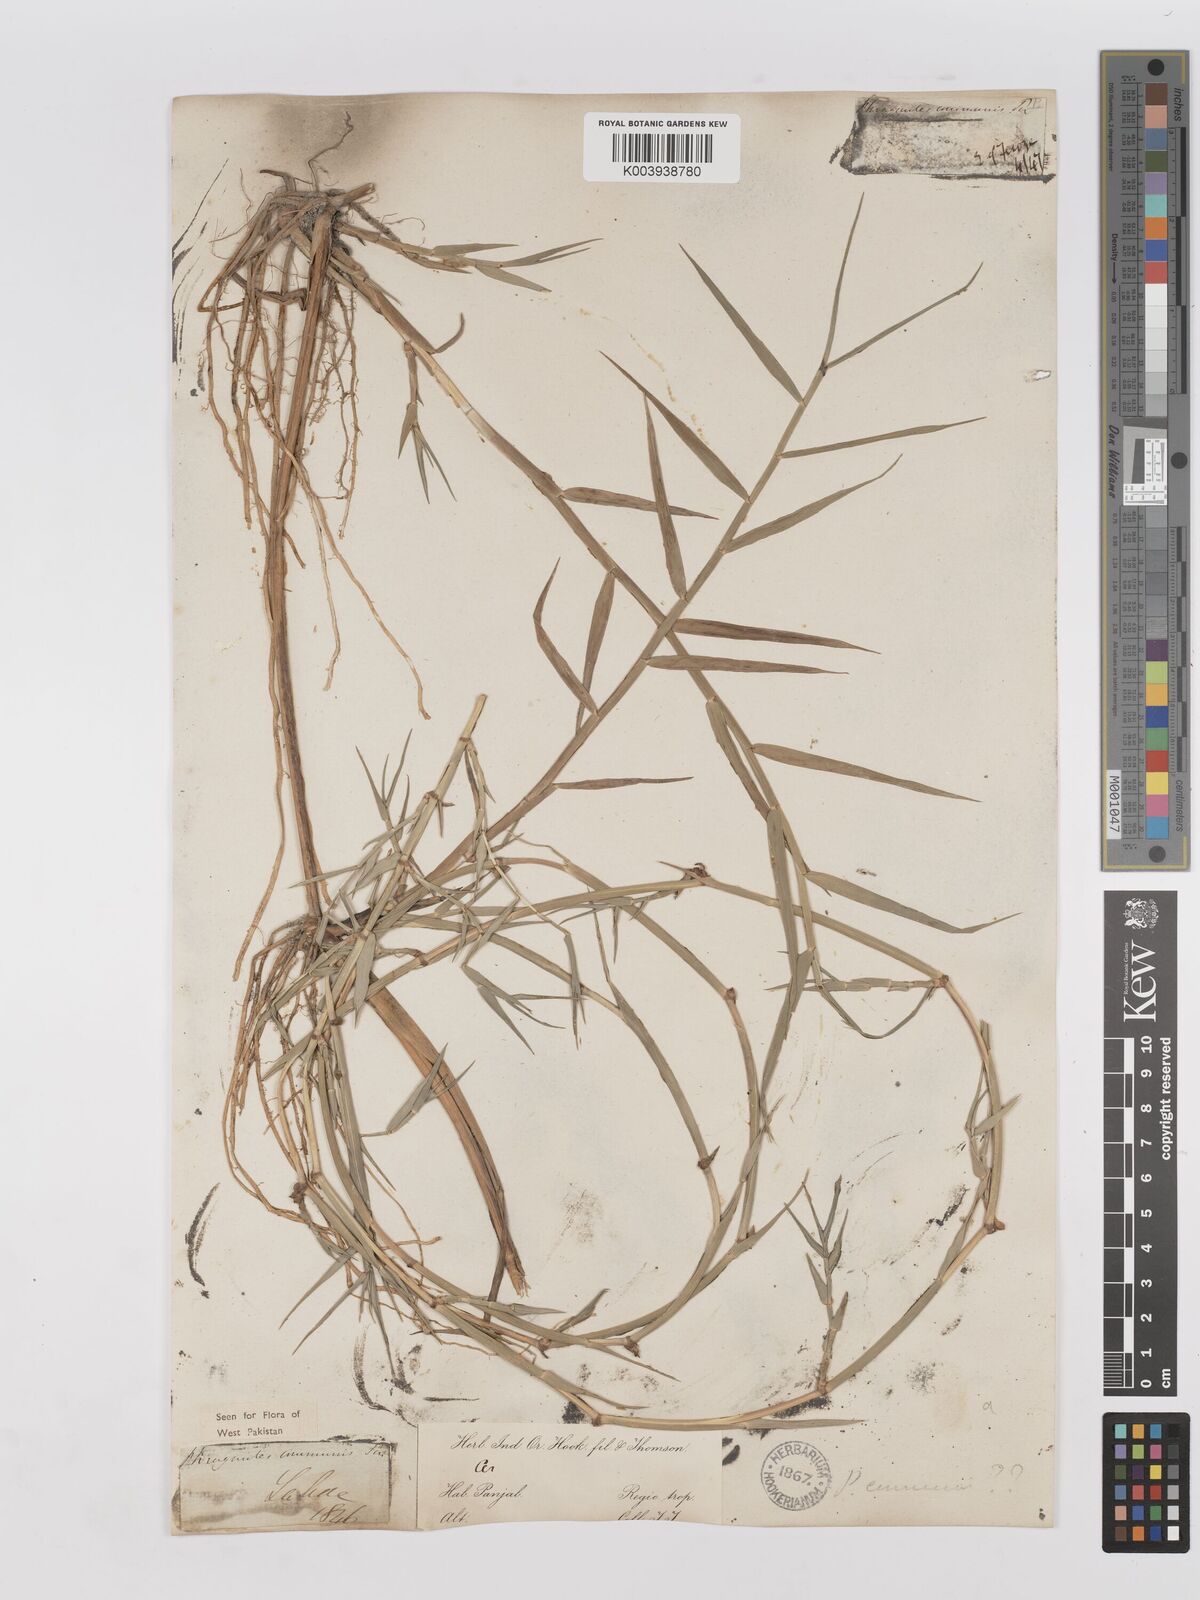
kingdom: Plantae
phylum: Tracheophyta
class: Liliopsida
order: Poales
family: Poaceae
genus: Phragmites
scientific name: Phragmites australis
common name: Common reed
